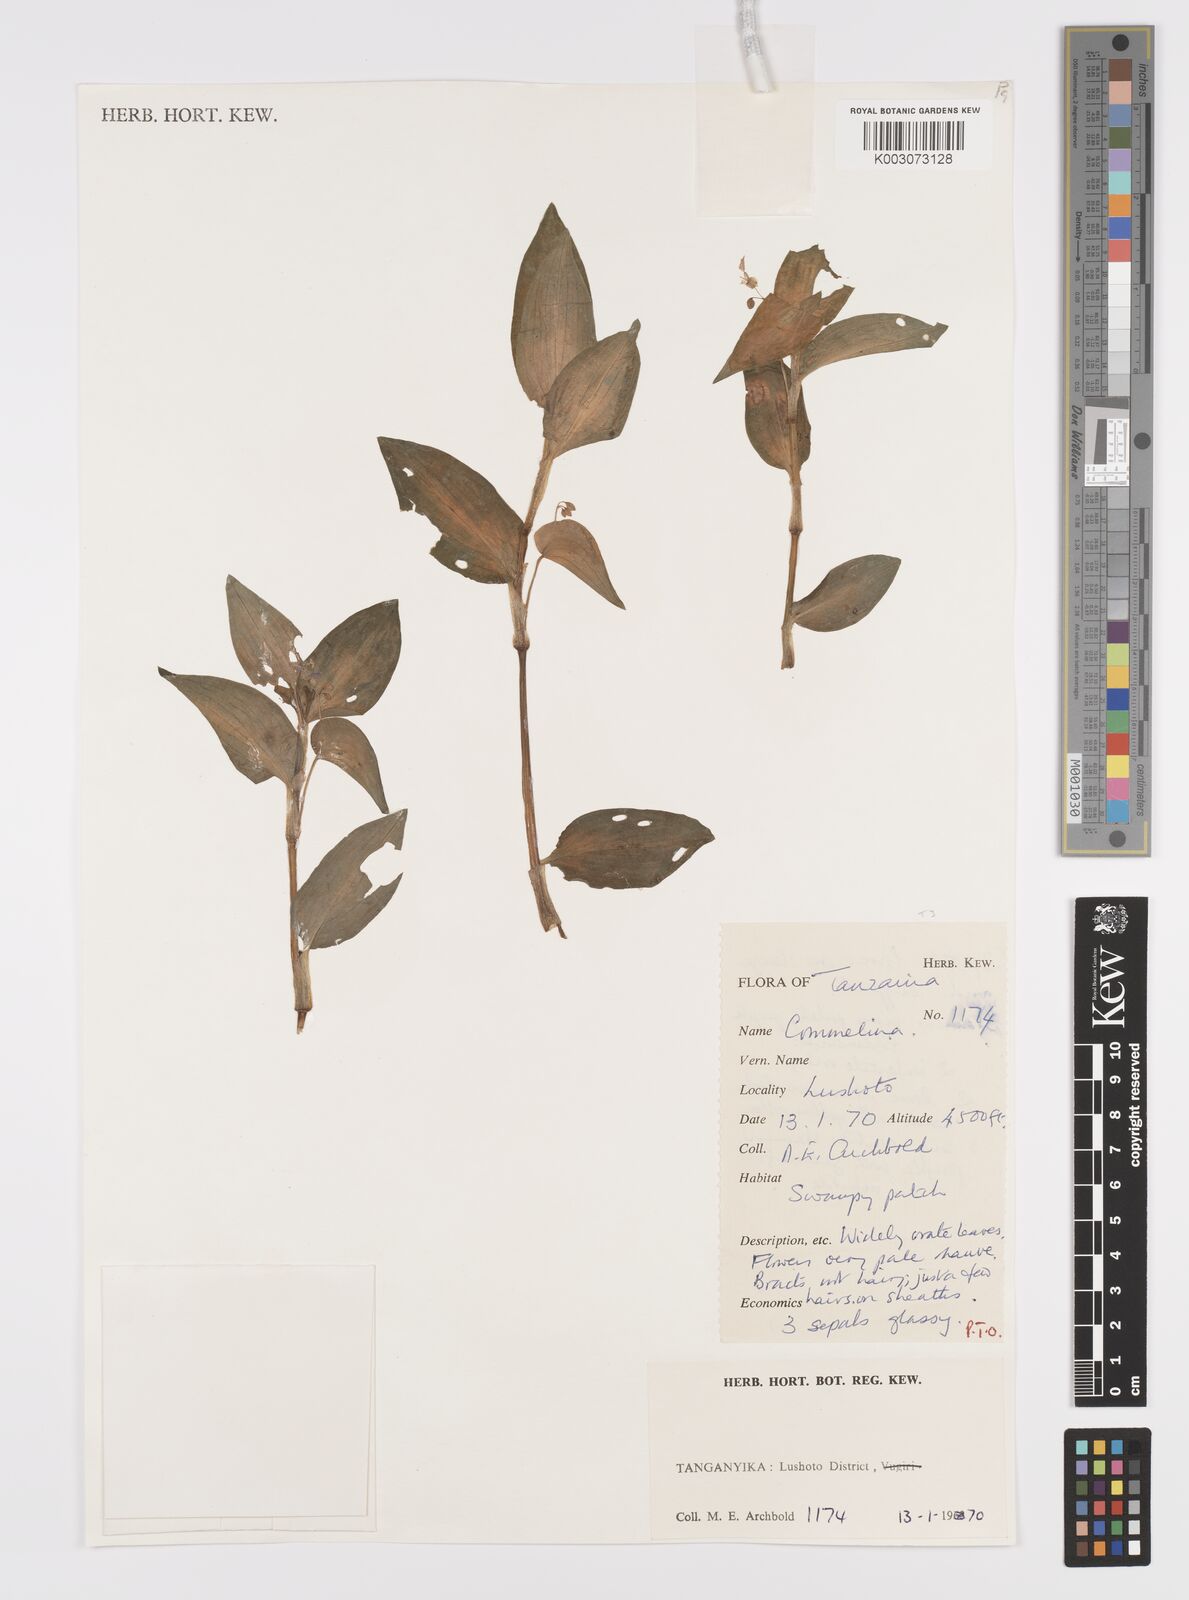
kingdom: Plantae
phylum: Tracheophyta
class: Liliopsida
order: Commelinales
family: Commelinaceae
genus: Commelina
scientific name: Commelina diffusa
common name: Climbing dayflower
